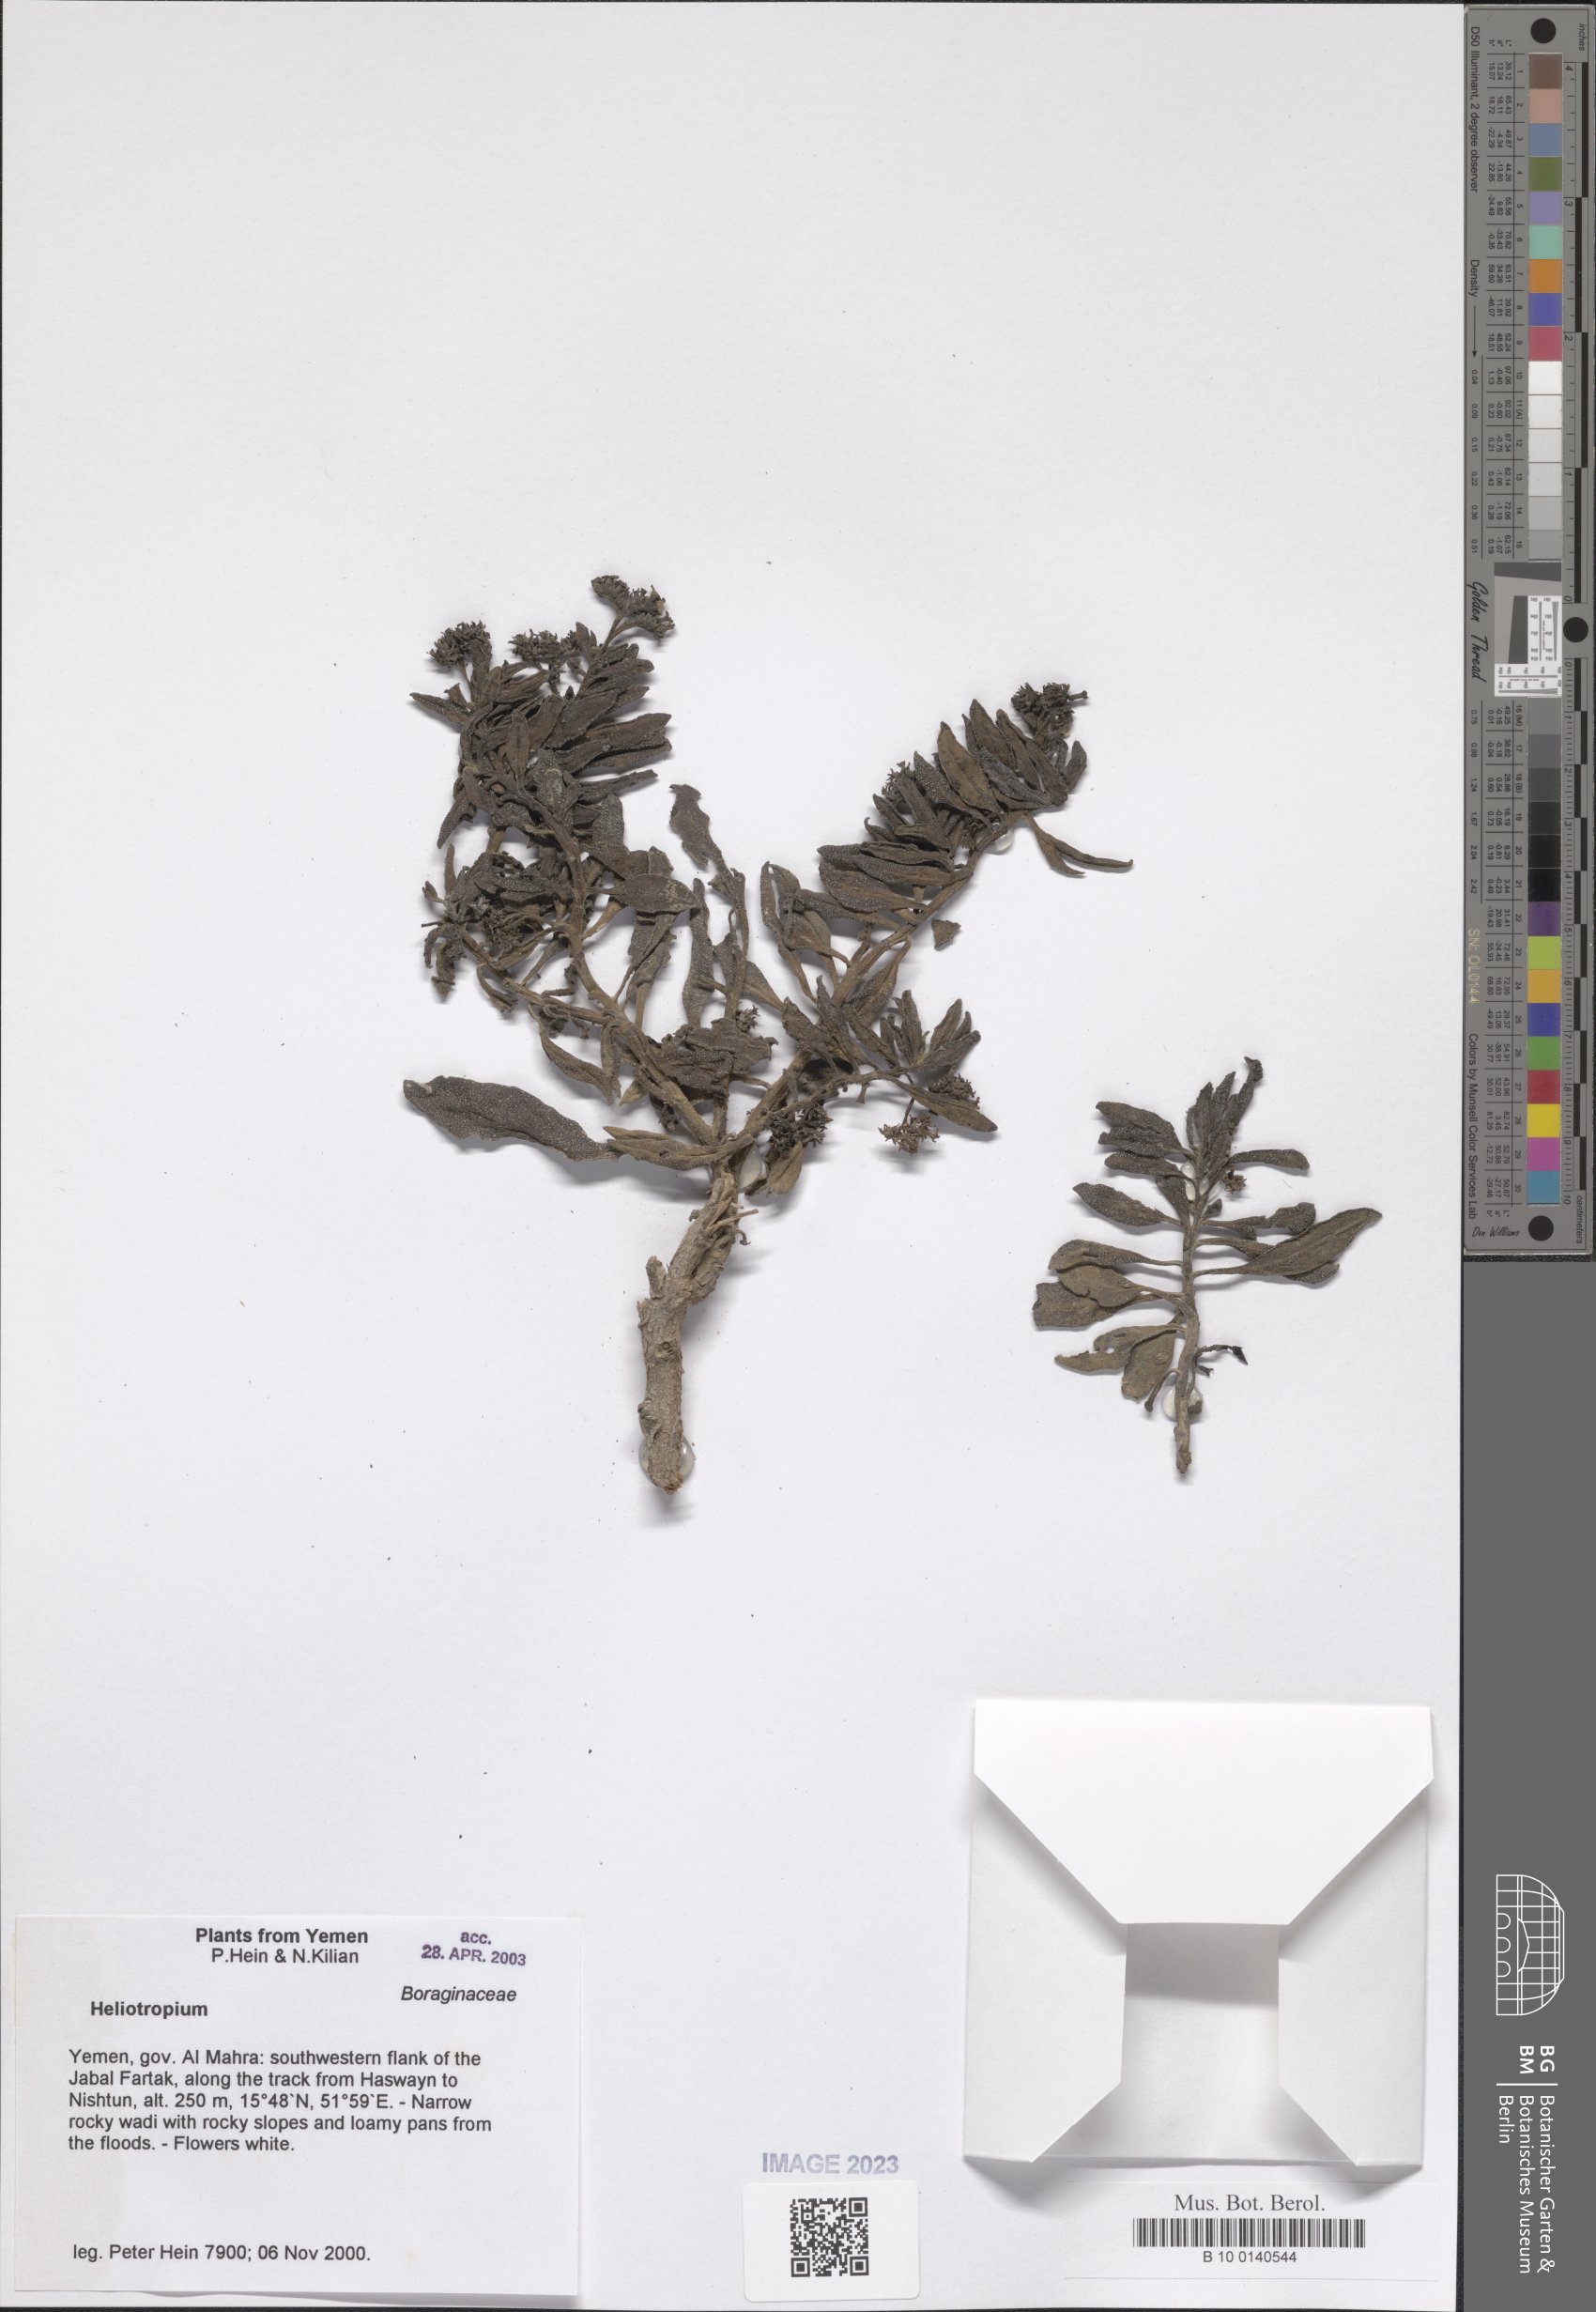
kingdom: Plantae
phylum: Tracheophyta
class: Magnoliopsida
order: Boraginales
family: Heliotropiaceae
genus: Heliotropium
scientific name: Heliotropium
